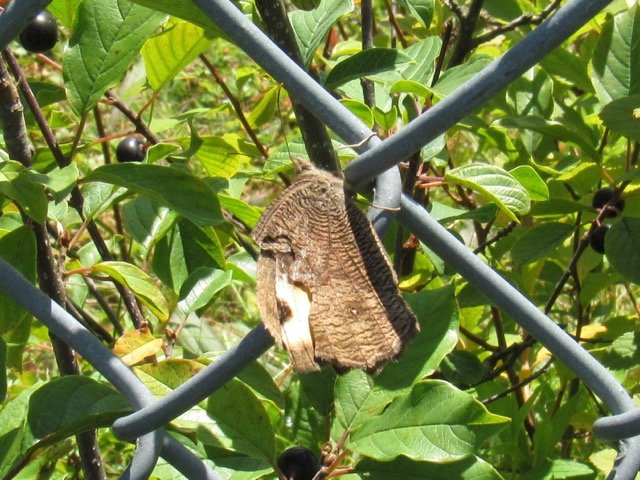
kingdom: Animalia
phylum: Arthropoda
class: Insecta
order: Lepidoptera
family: Nymphalidae
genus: Cercyonis
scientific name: Cercyonis pegala
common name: Common Wood-Nymph
